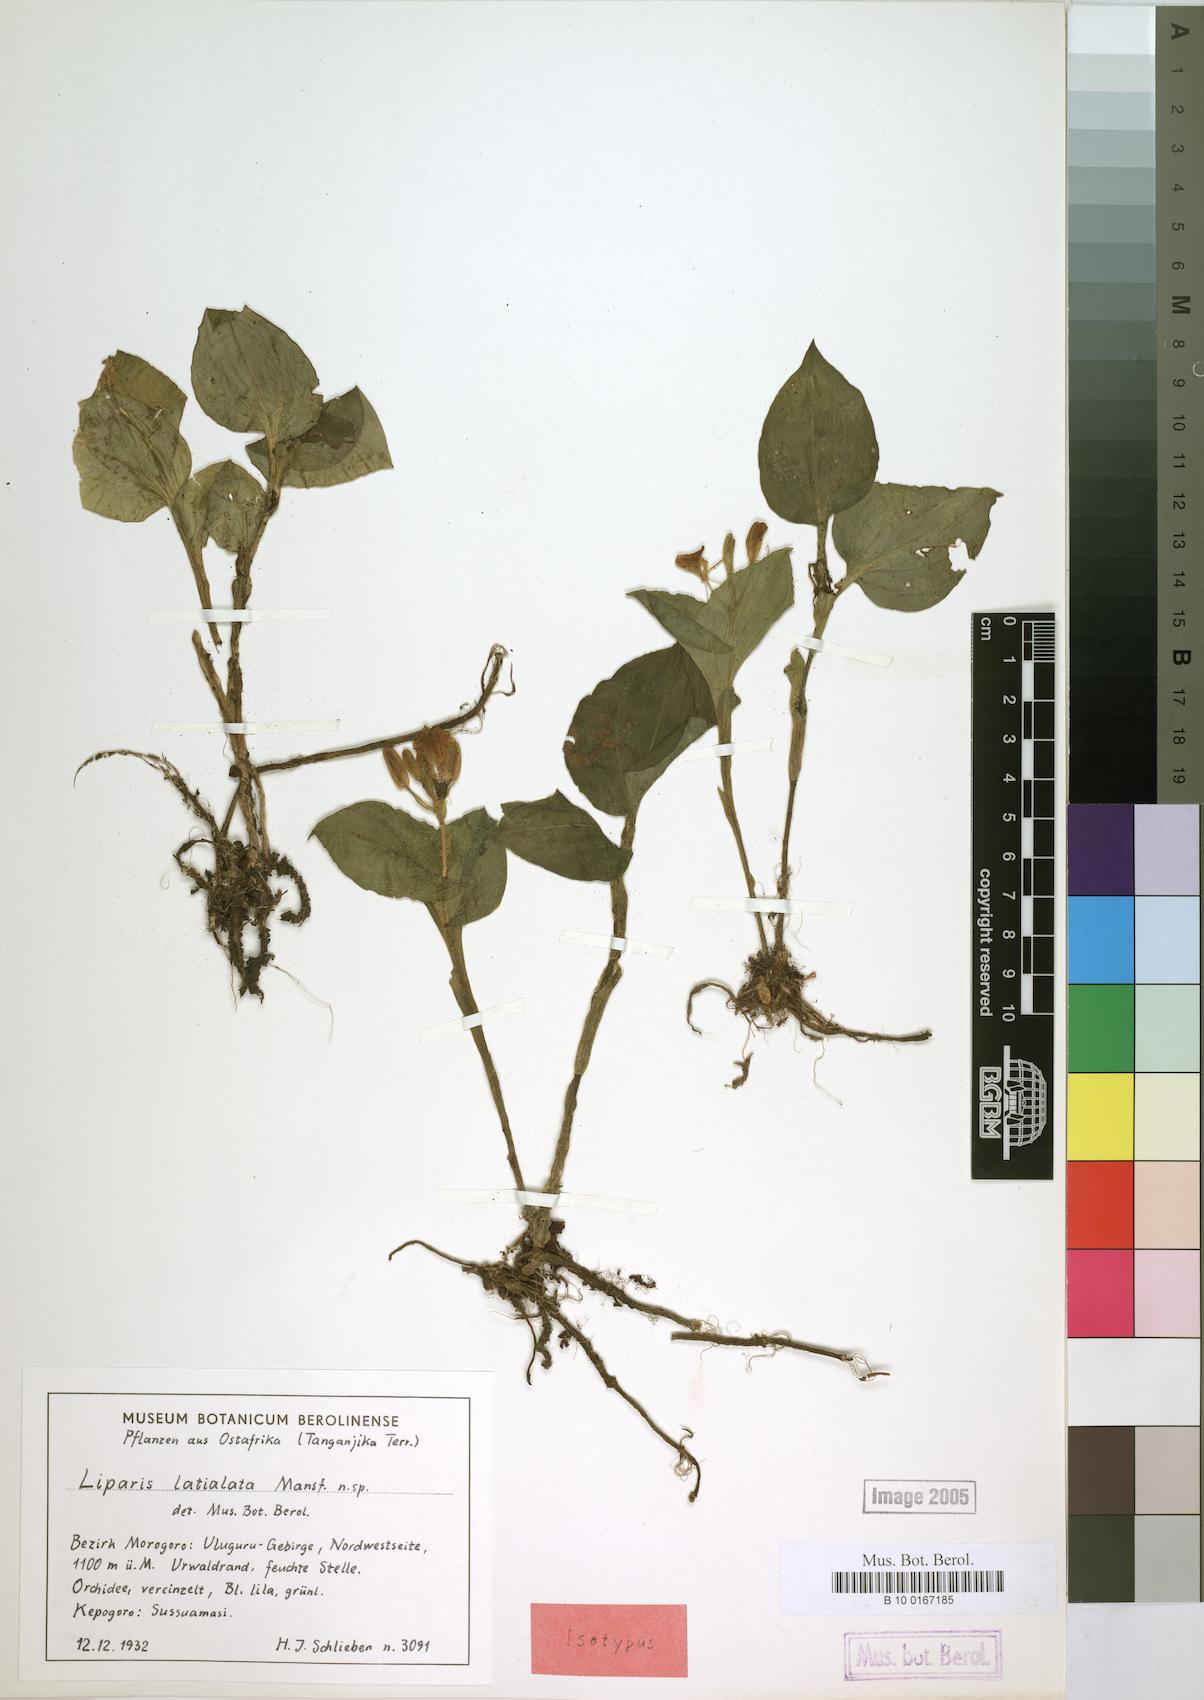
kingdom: Plantae
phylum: Tracheophyta
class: Liliopsida
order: Asparagales
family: Orchidaceae
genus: Liparis
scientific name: Liparis latialata
